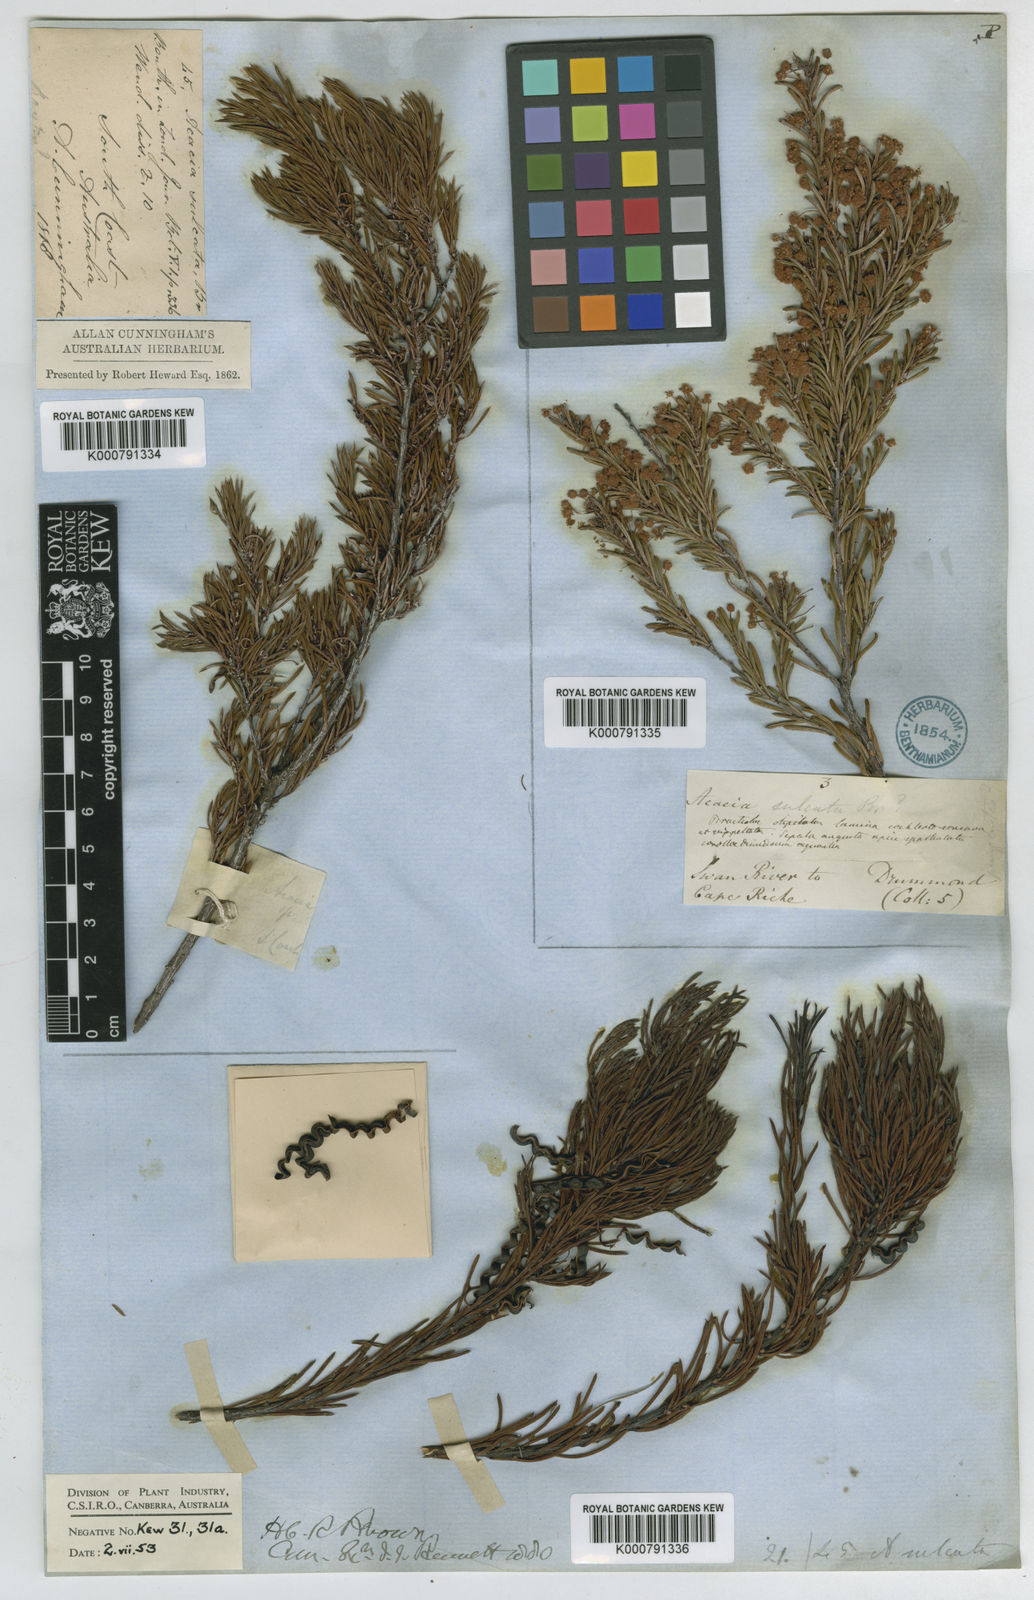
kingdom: Plantae
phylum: Tracheophyta
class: Magnoliopsida
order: Fabales
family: Fabaceae
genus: Acacia
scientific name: Acacia sulcata
